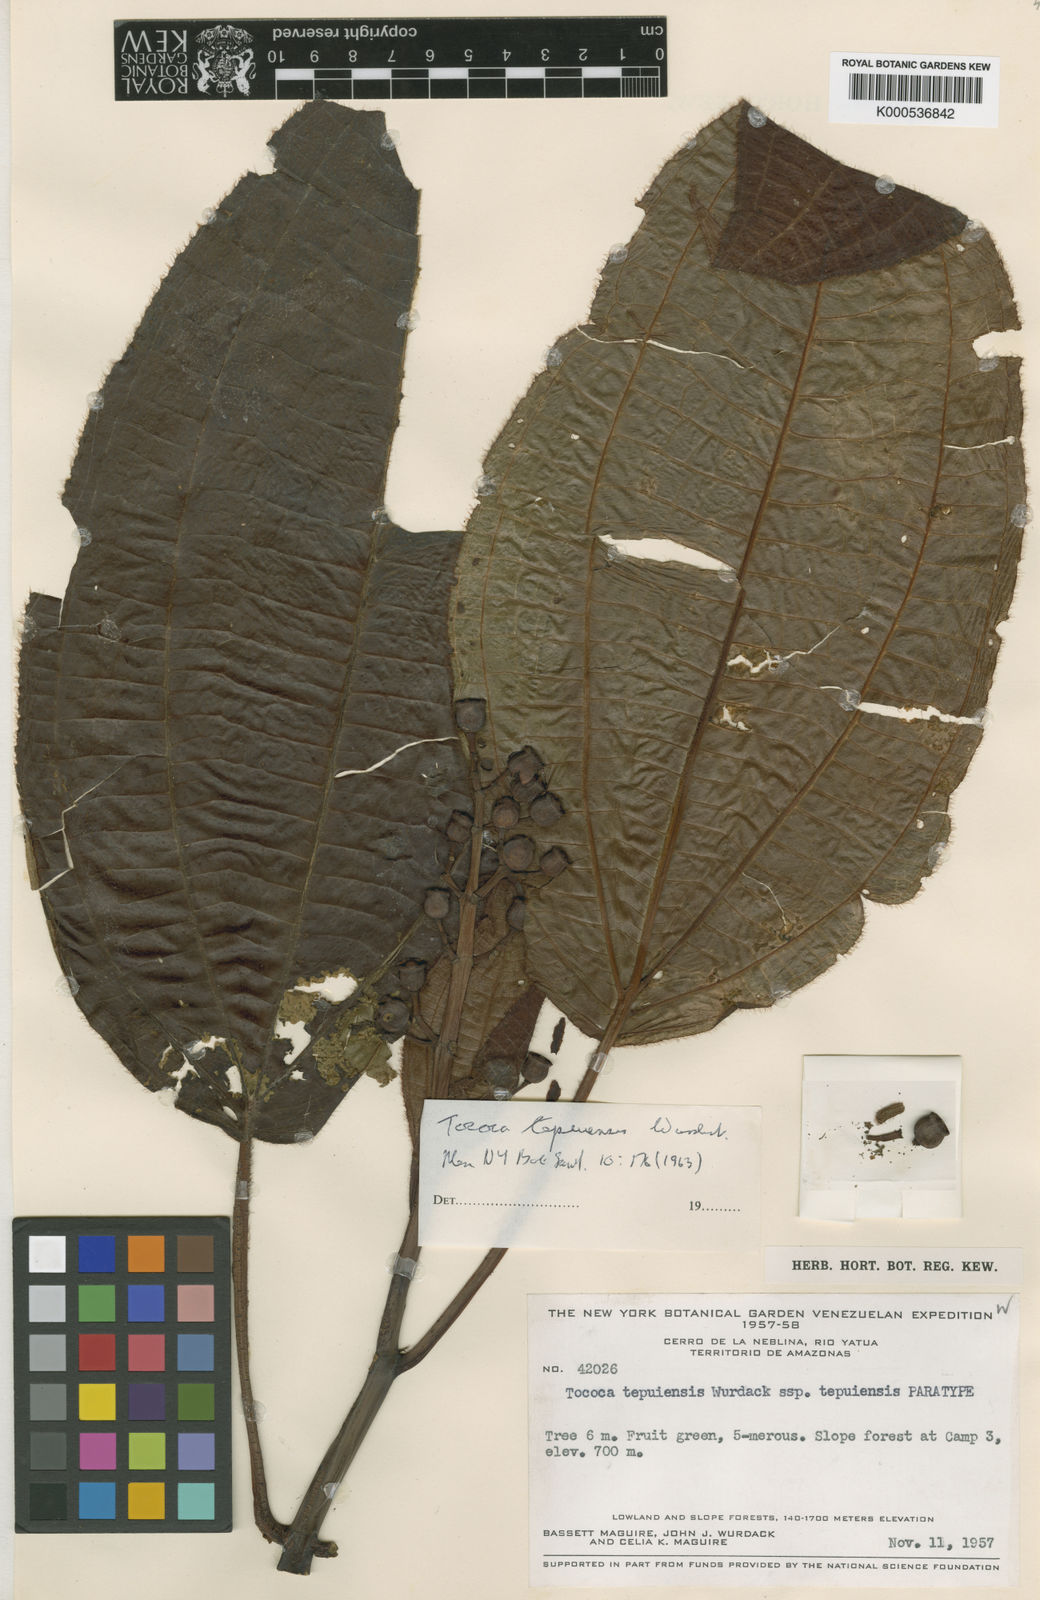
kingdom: Plantae
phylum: Tracheophyta
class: Magnoliopsida
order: Myrtales
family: Melastomataceae
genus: Miconia
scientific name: Miconia tepuiensis
